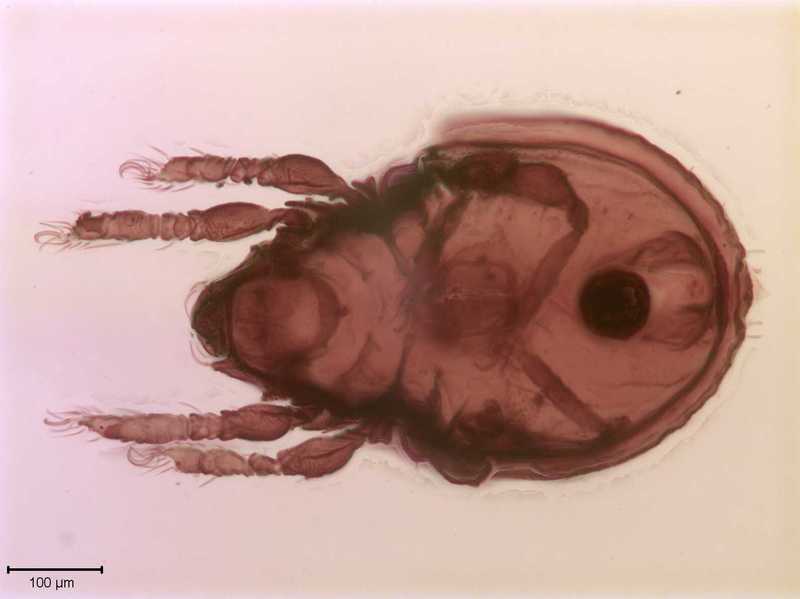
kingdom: Animalia
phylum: Arthropoda
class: Arachnida
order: Sarcoptiformes
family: Scutoverticidae
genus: Scutovertex
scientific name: Scutovertex minutus
